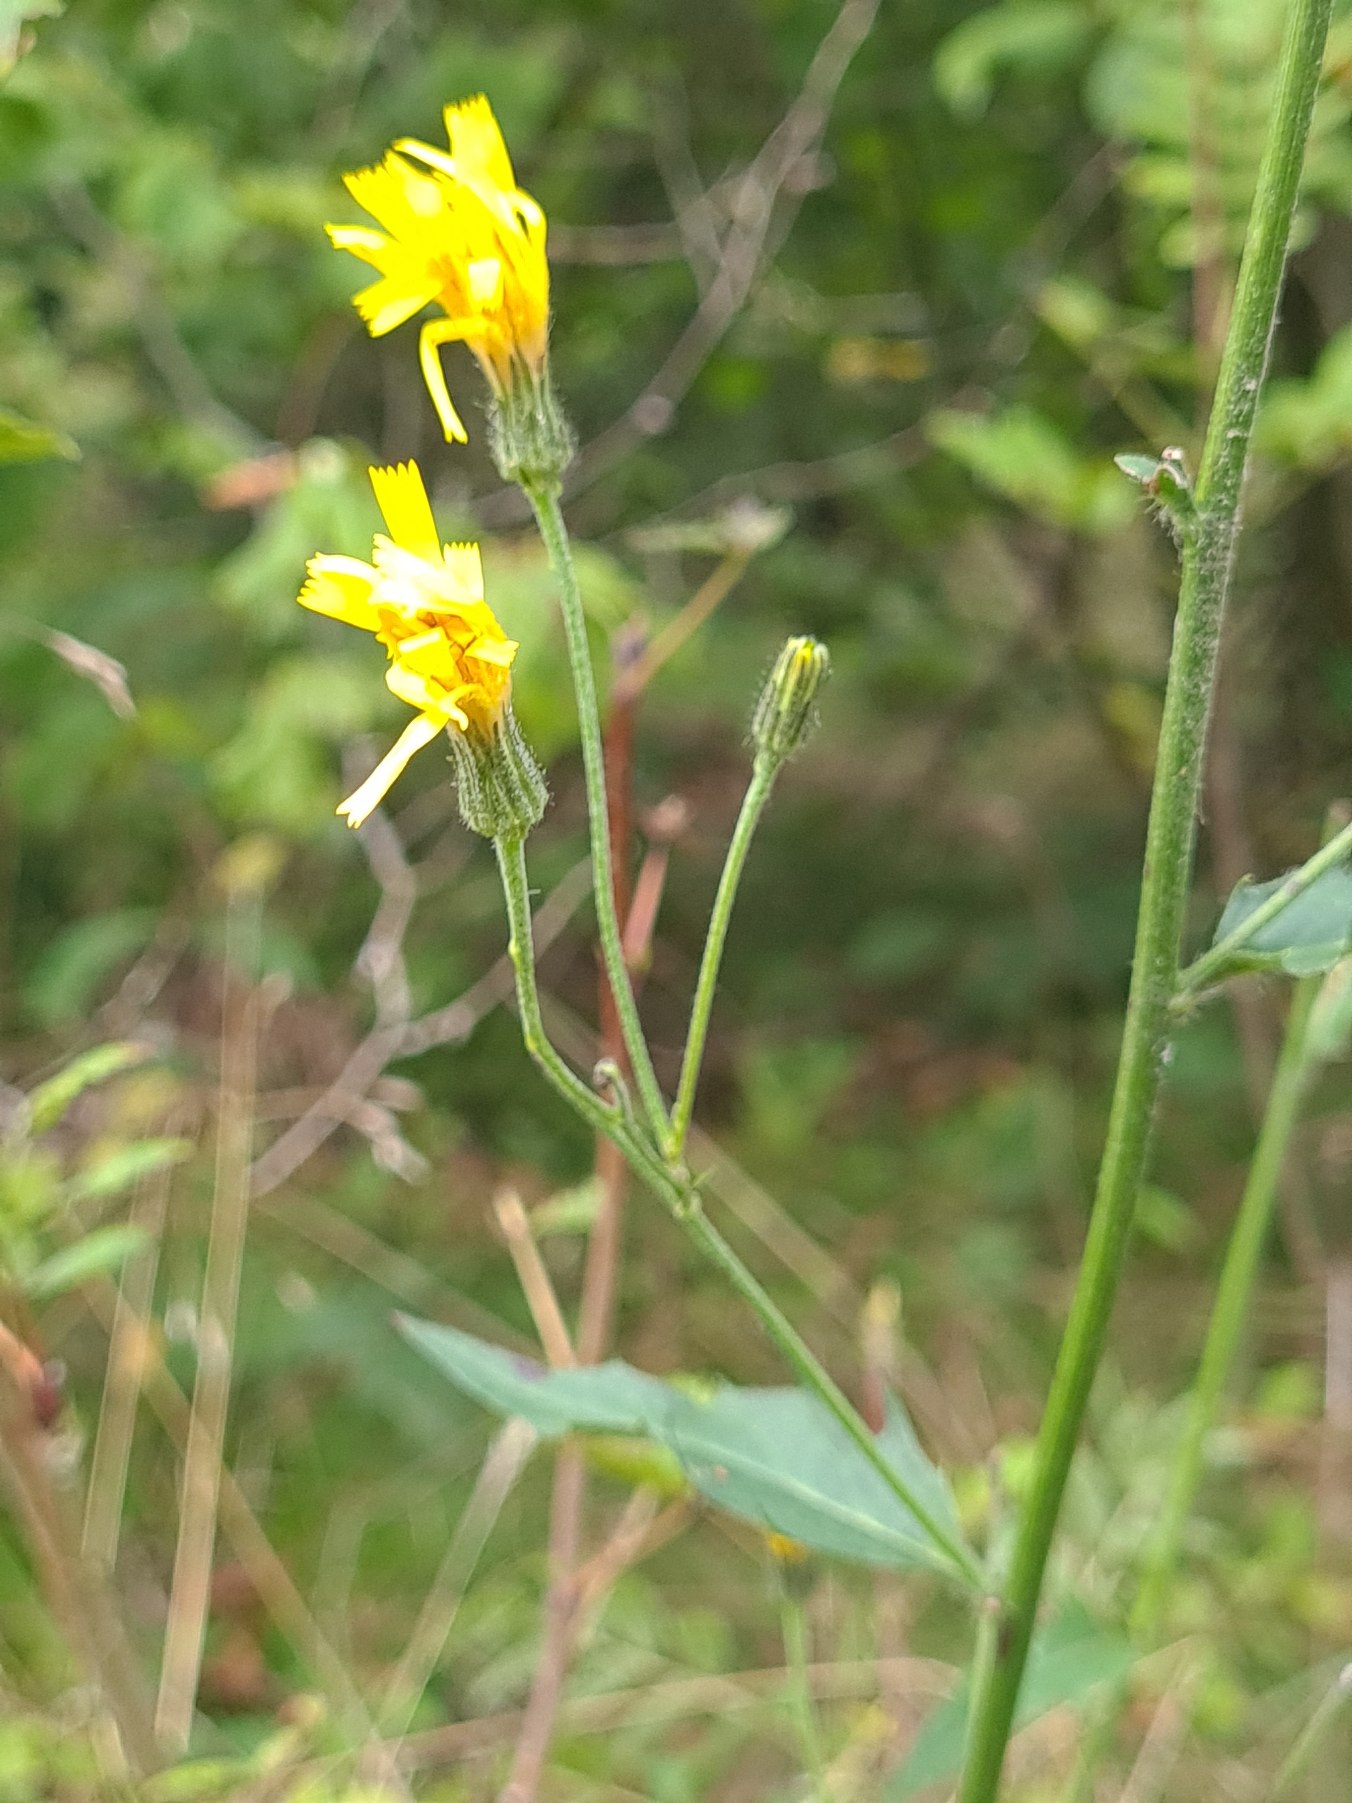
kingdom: Plantae
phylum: Tracheophyta
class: Magnoliopsida
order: Asterales
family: Asteraceae
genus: Hieracium
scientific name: Hieracium
